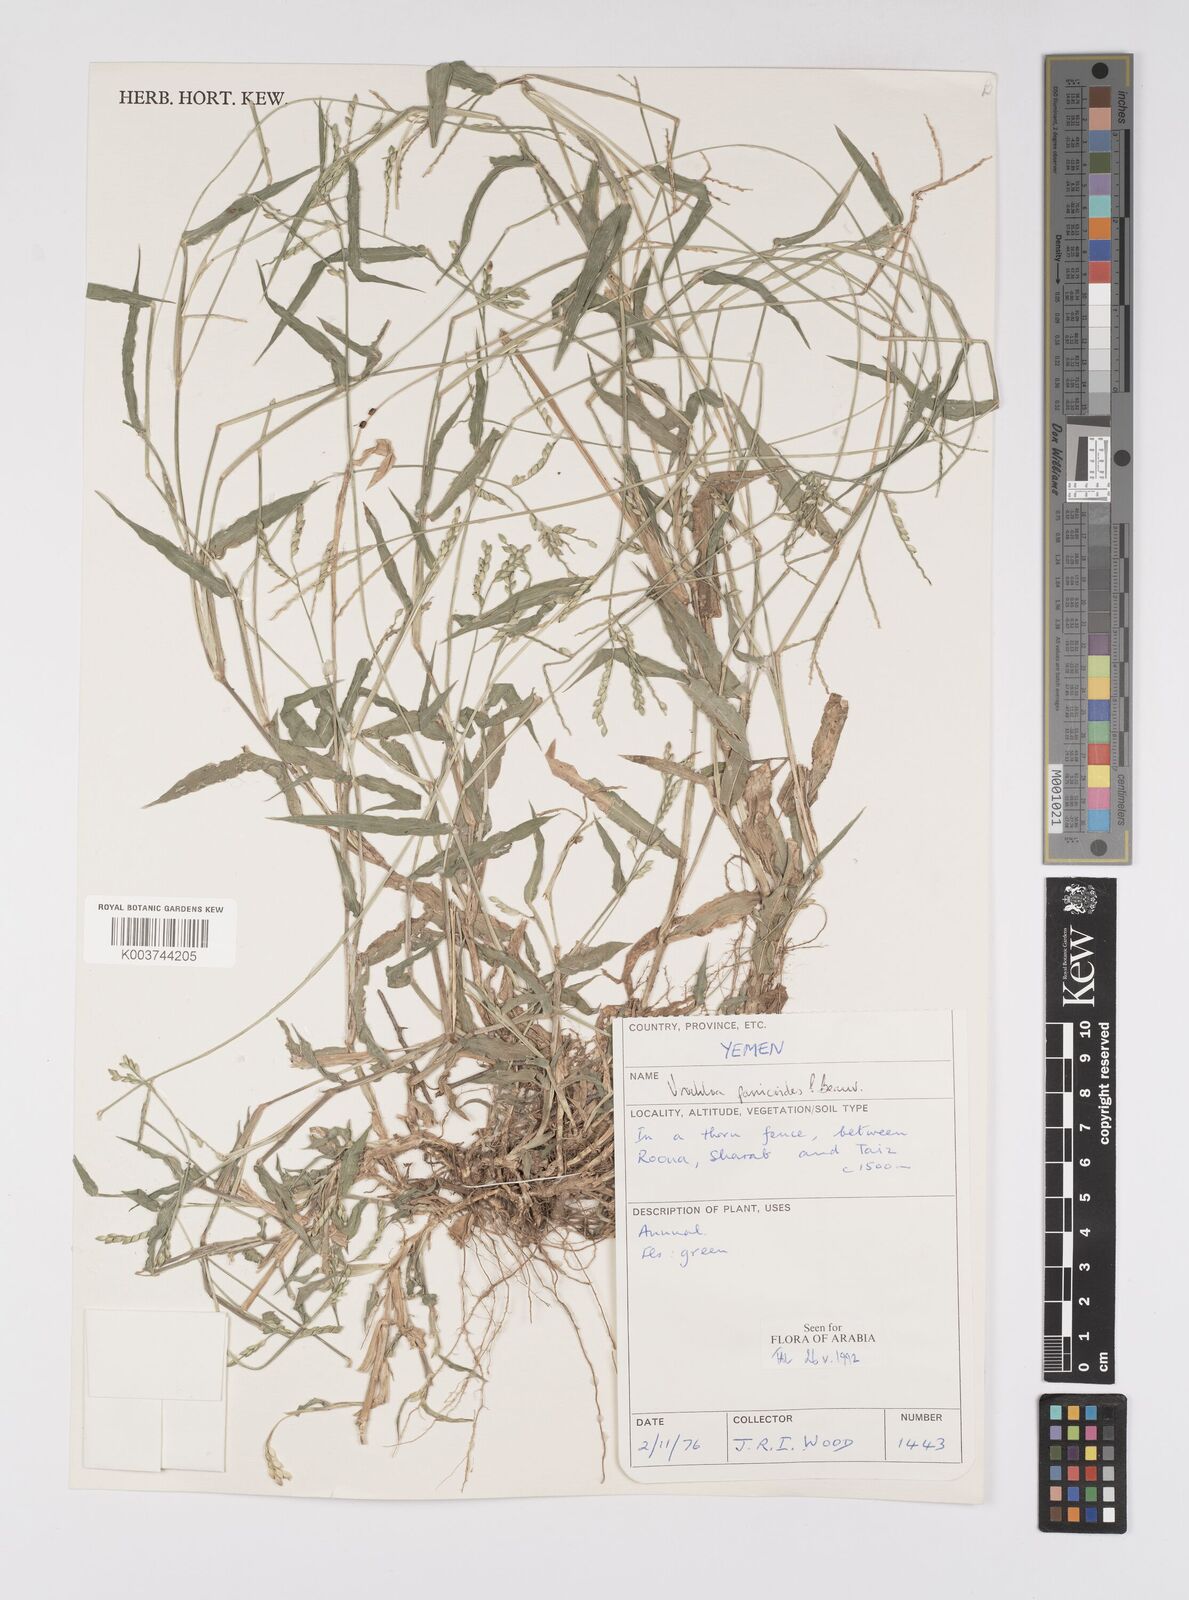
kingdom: Plantae
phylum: Tracheophyta
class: Liliopsida
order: Poales
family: Poaceae
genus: Urochloa
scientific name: Urochloa panicoides
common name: Sharp-flowered signal-grass
